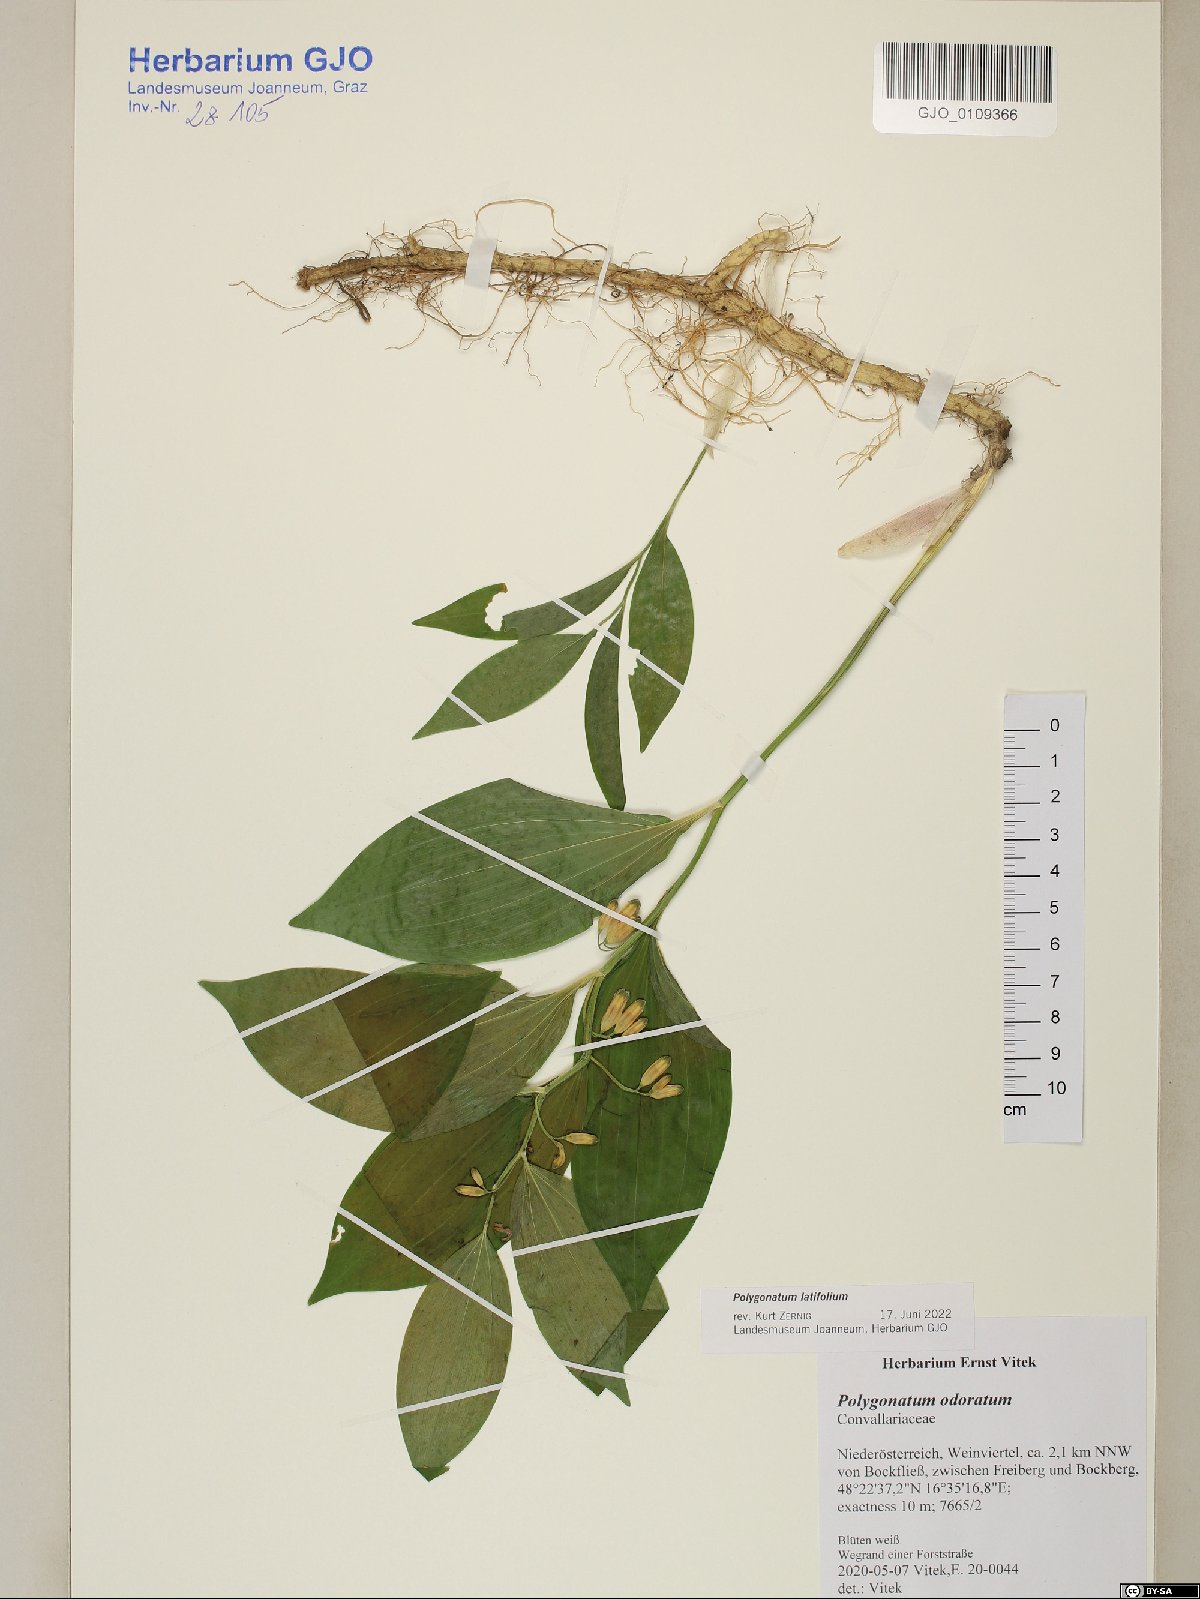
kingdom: Plantae
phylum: Tracheophyta
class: Liliopsida
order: Asparagales
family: Asparagaceae
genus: Polygonatum
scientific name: Polygonatum latifolium
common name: Broadleaf solomon's seal
